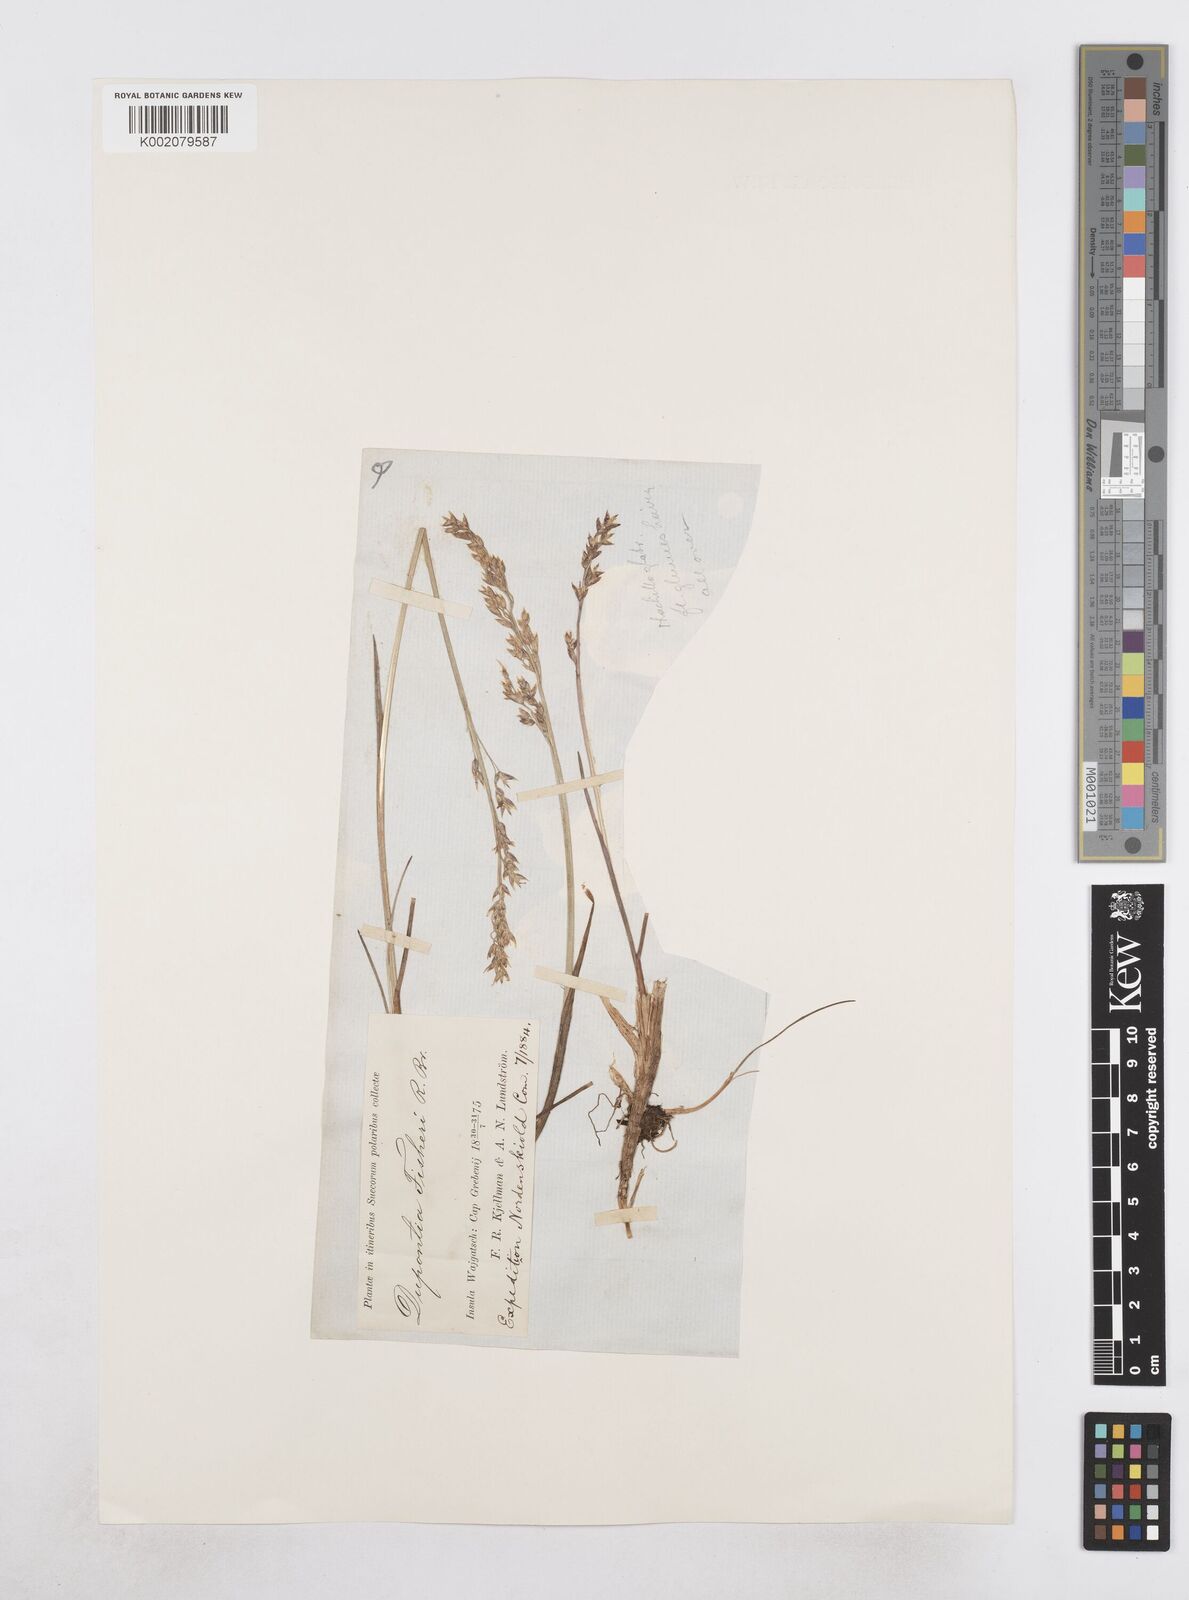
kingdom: Plantae
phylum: Tracheophyta
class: Liliopsida
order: Poales
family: Poaceae
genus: Dupontia
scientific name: Dupontia fisheri
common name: Tundra grass
